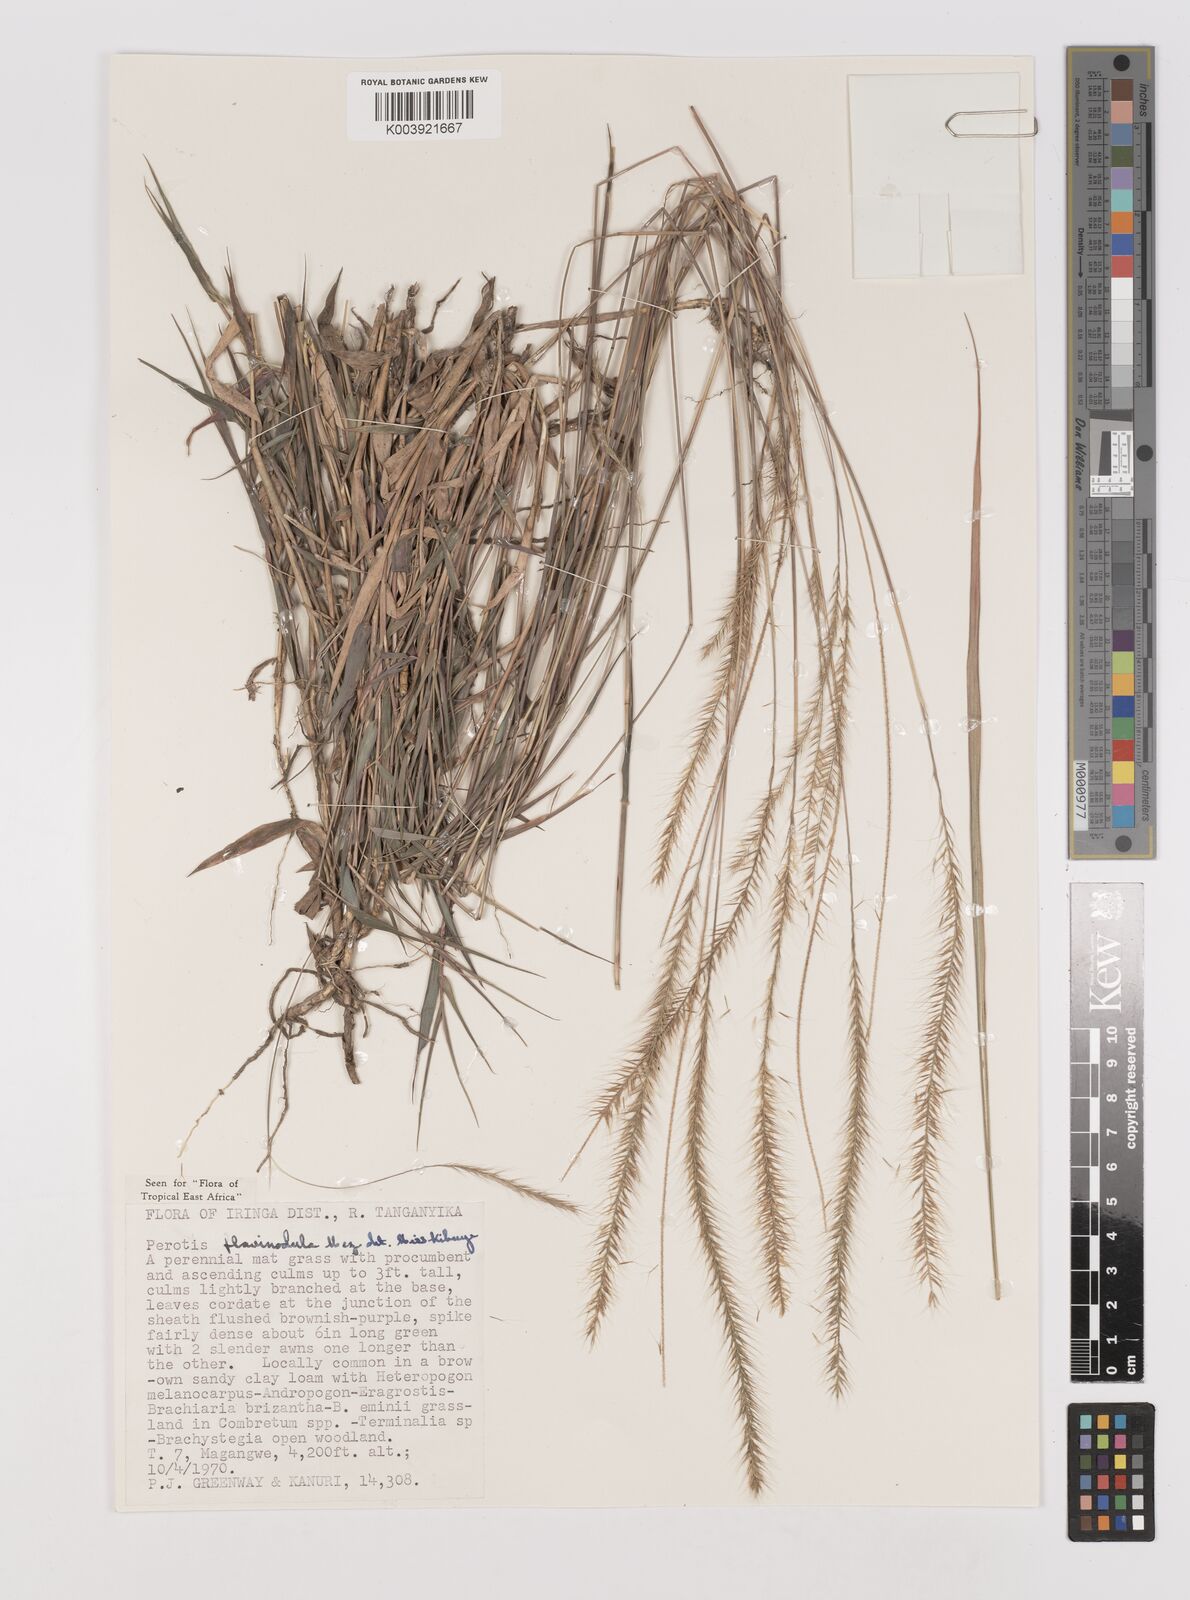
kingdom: Plantae
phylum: Tracheophyta
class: Liliopsida
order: Poales
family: Poaceae
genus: Perotis
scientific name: Perotis flavinodula
